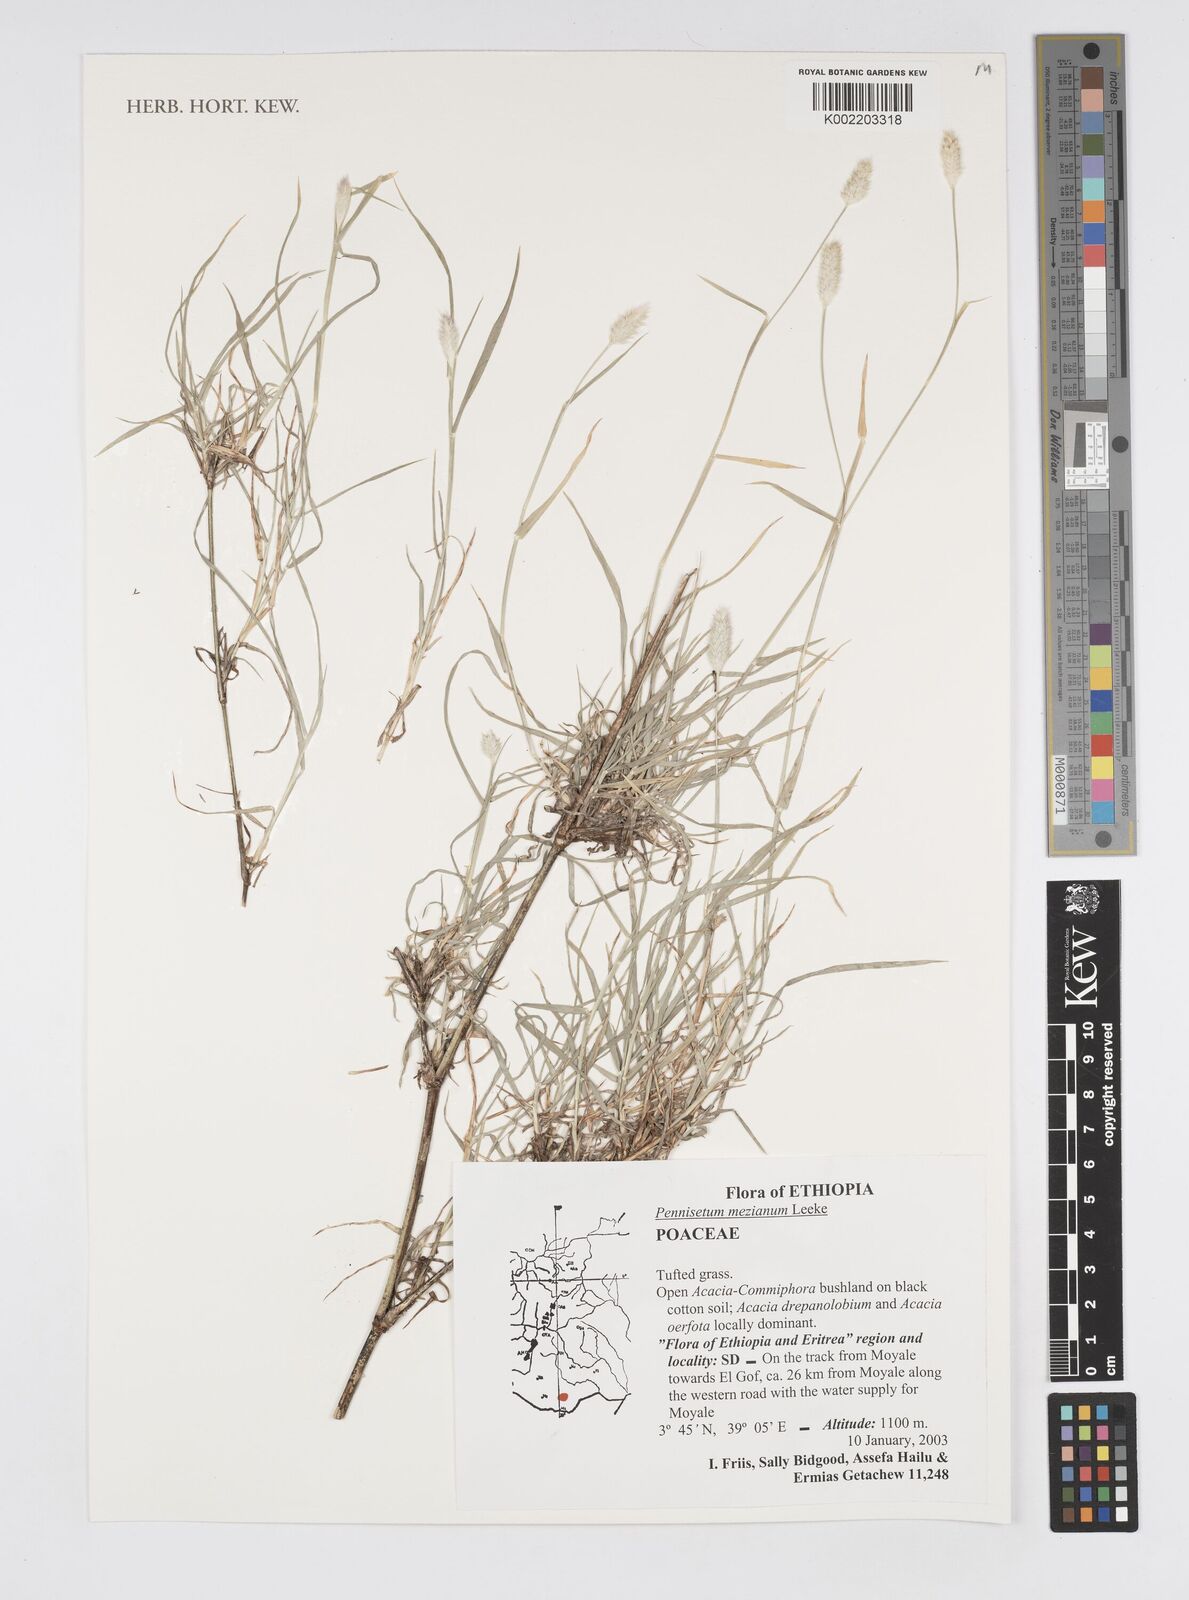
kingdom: Plantae
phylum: Tracheophyta
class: Liliopsida
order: Poales
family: Poaceae
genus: Cenchrus
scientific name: Cenchrus mezianus
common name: Bamboo grass
